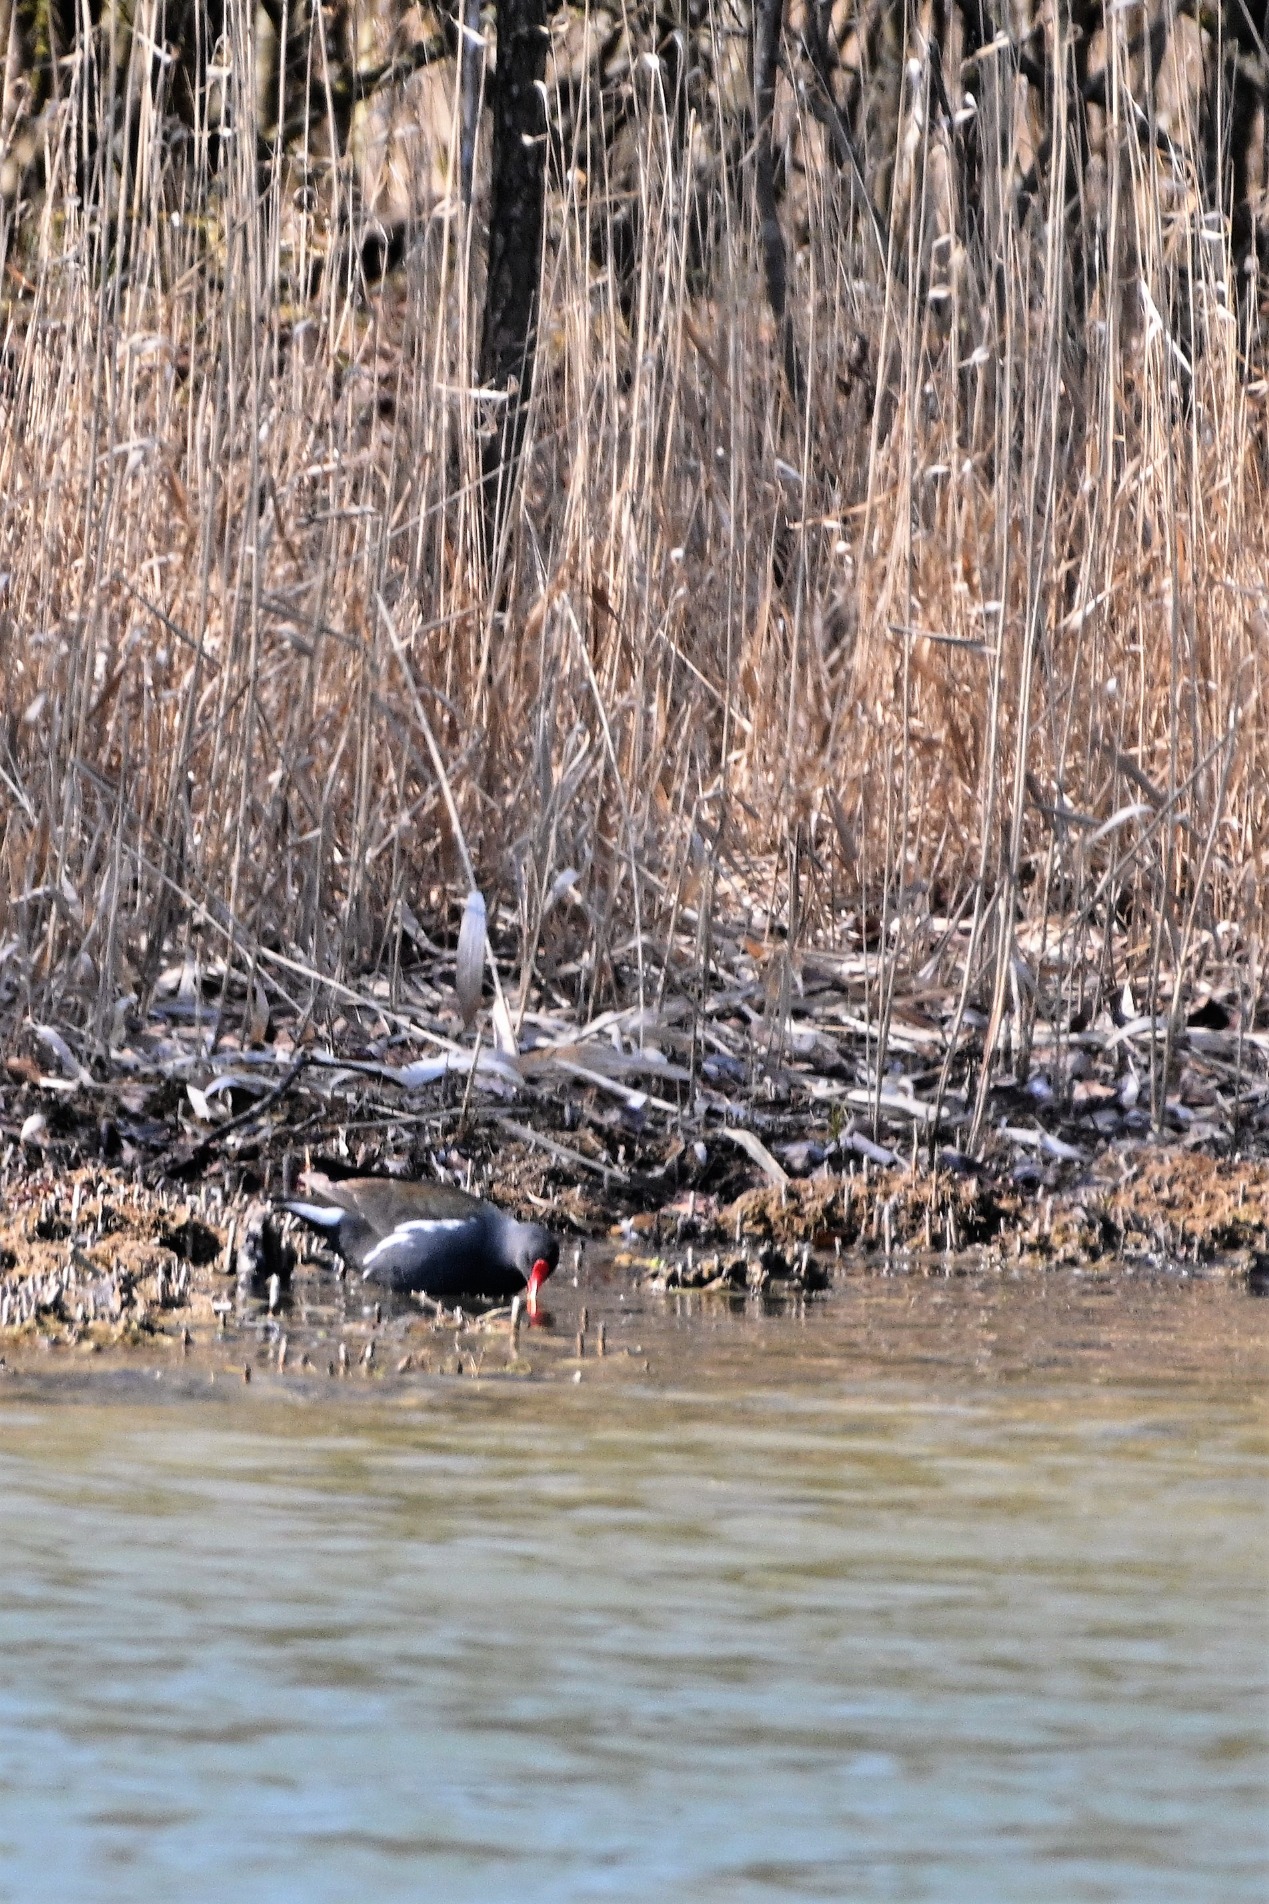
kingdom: Animalia
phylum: Chordata
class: Aves
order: Gruiformes
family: Rallidae
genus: Gallinula
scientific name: Gallinula chloropus
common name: Grønbenet rørhøne
